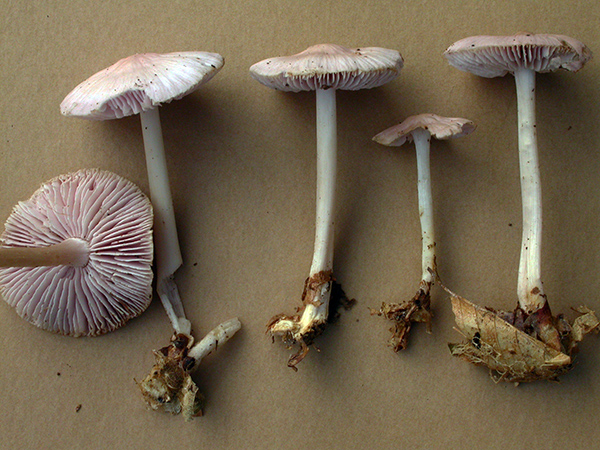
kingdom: Fungi
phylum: Basidiomycota
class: Agaricomycetes
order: Agaricales
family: Mycenaceae
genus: Mycena
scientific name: Mycena rosea
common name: rosa huesvamp
